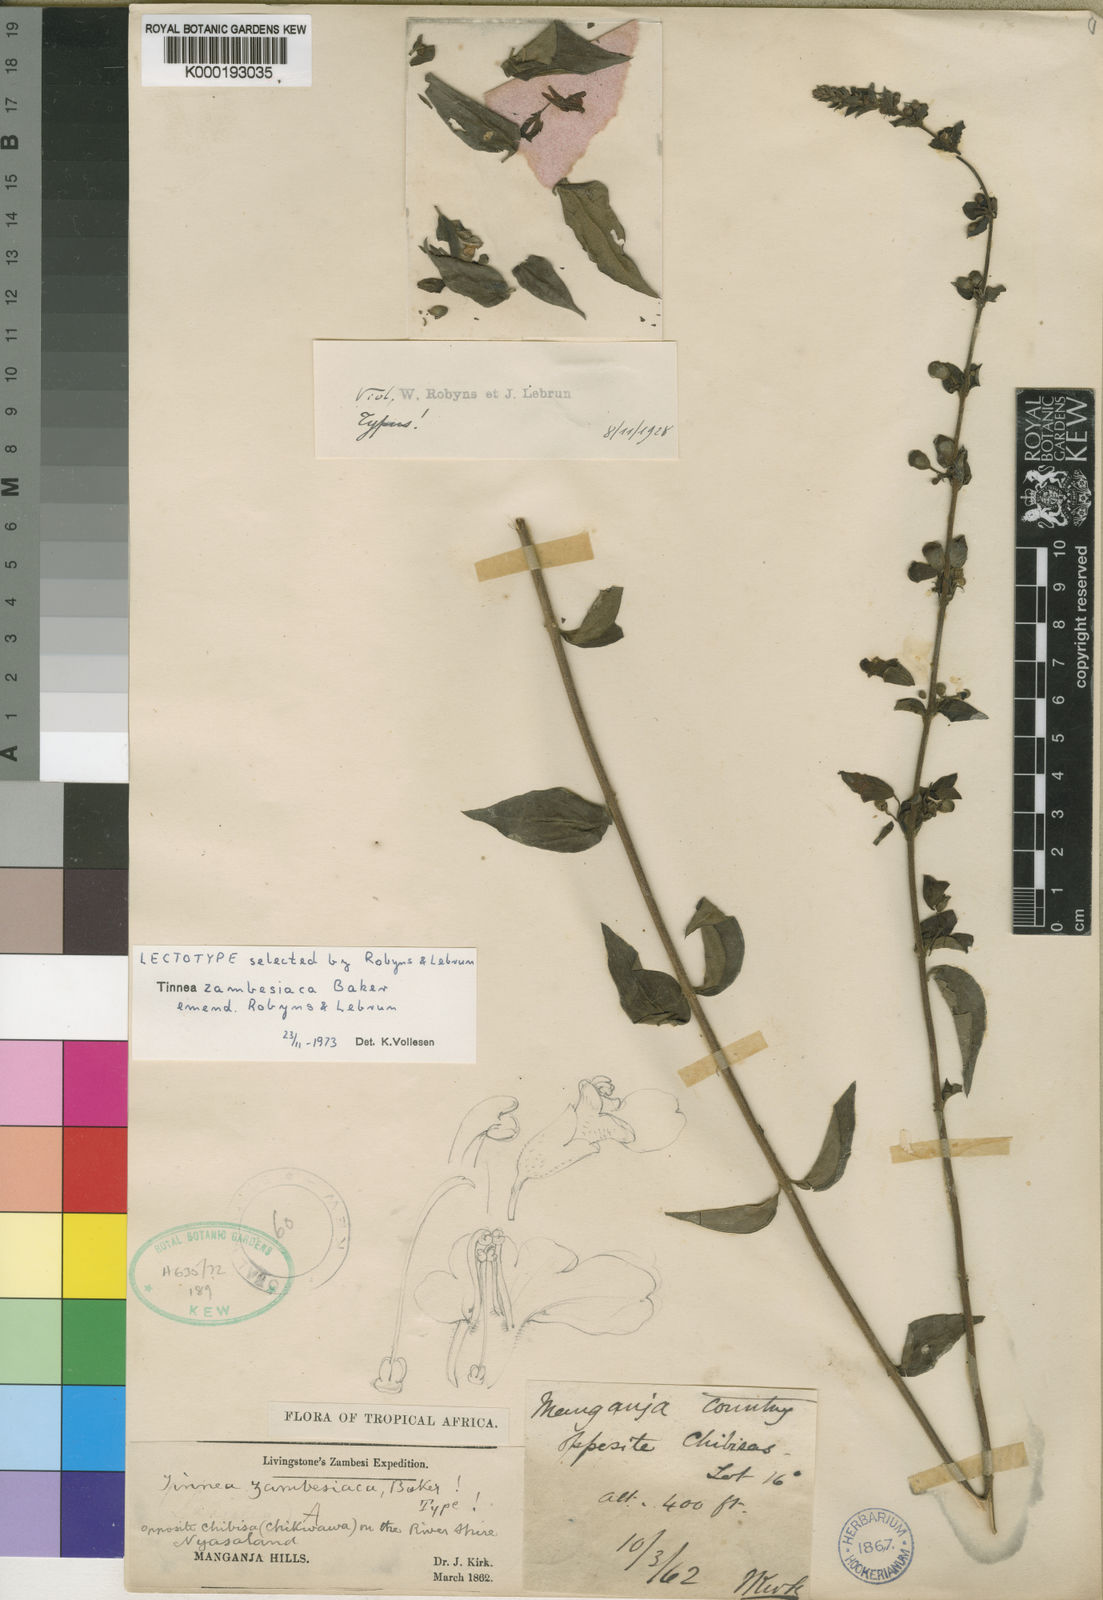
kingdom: Plantae
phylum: Tracheophyta
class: Magnoliopsida
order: Lamiales
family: Lamiaceae
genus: Tinnea
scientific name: Tinnea zambesiaca
